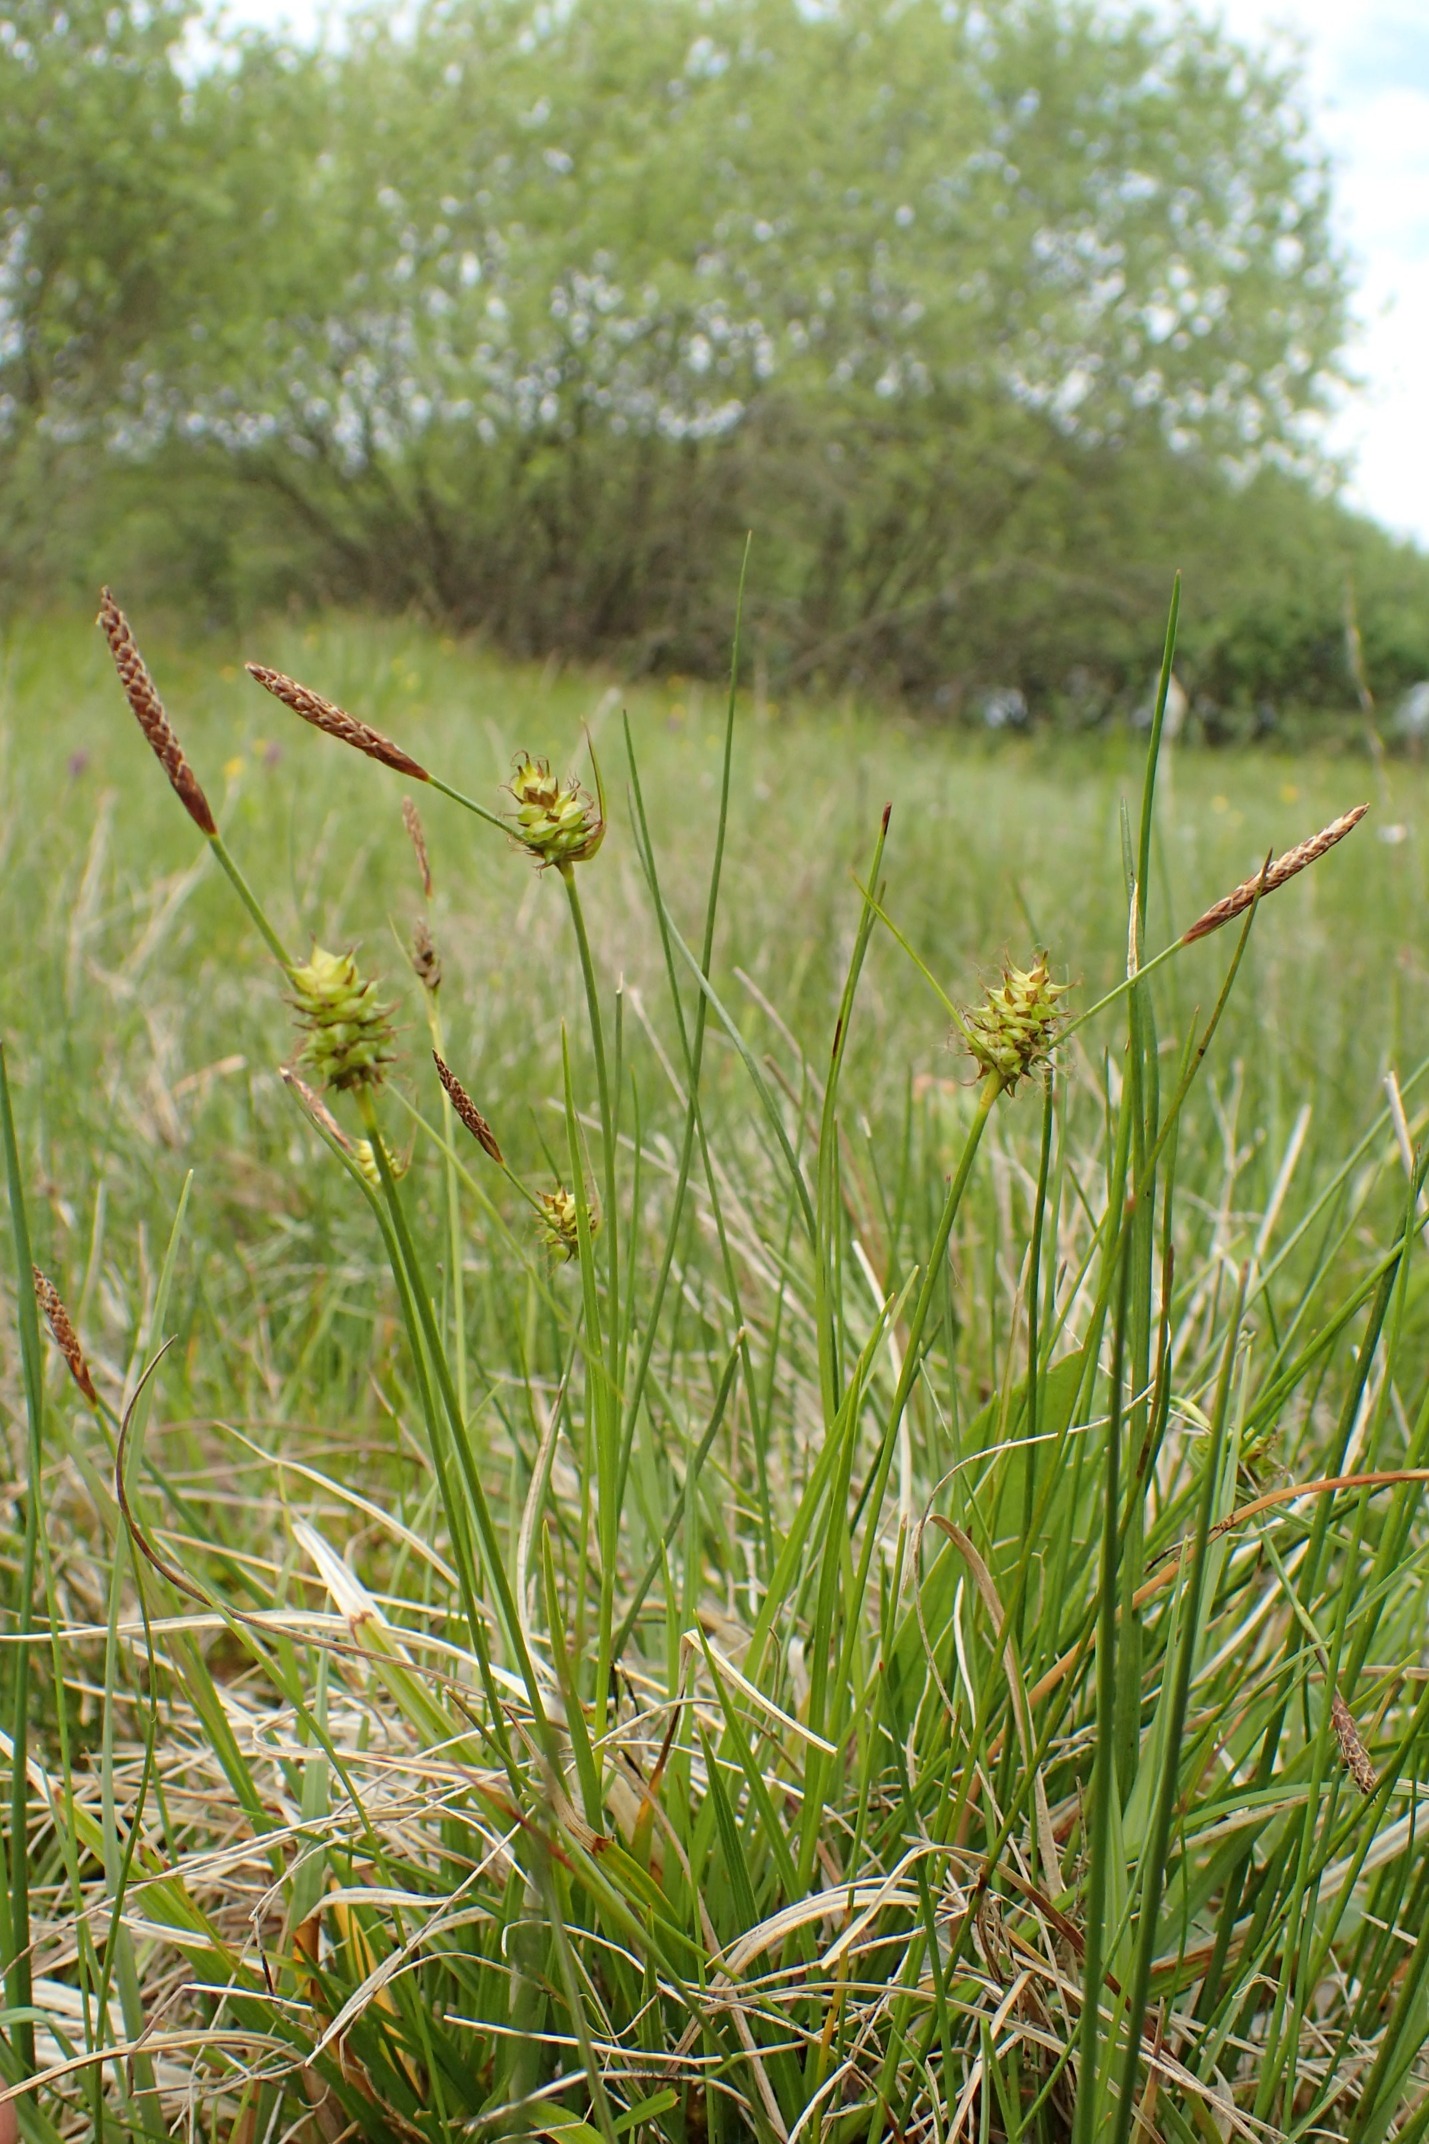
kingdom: Plantae
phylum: Tracheophyta
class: Liliopsida
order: Poales
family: Cyperaceae
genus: Carex
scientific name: Carex lepidocarpa
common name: Krognæb-star
